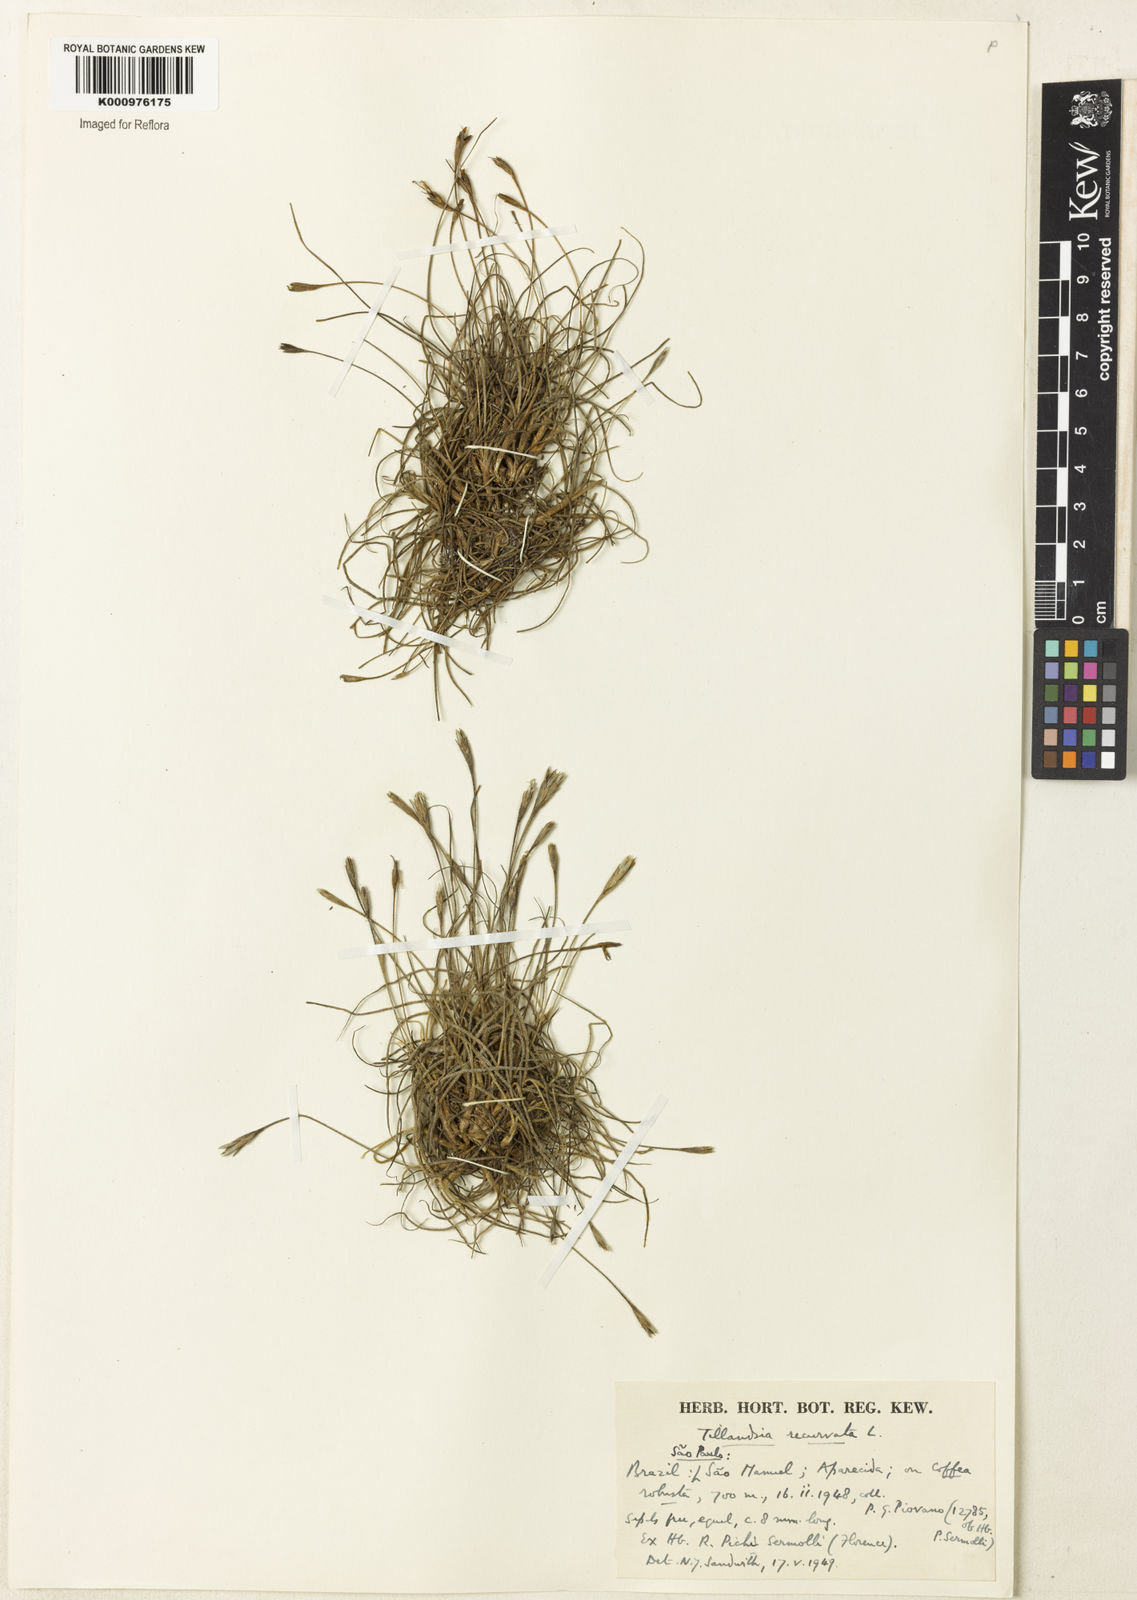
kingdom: Plantae
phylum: Tracheophyta
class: Liliopsida
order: Poales
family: Bromeliaceae
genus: Tillandsia
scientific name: Tillandsia recurvata
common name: Small ballmoss
